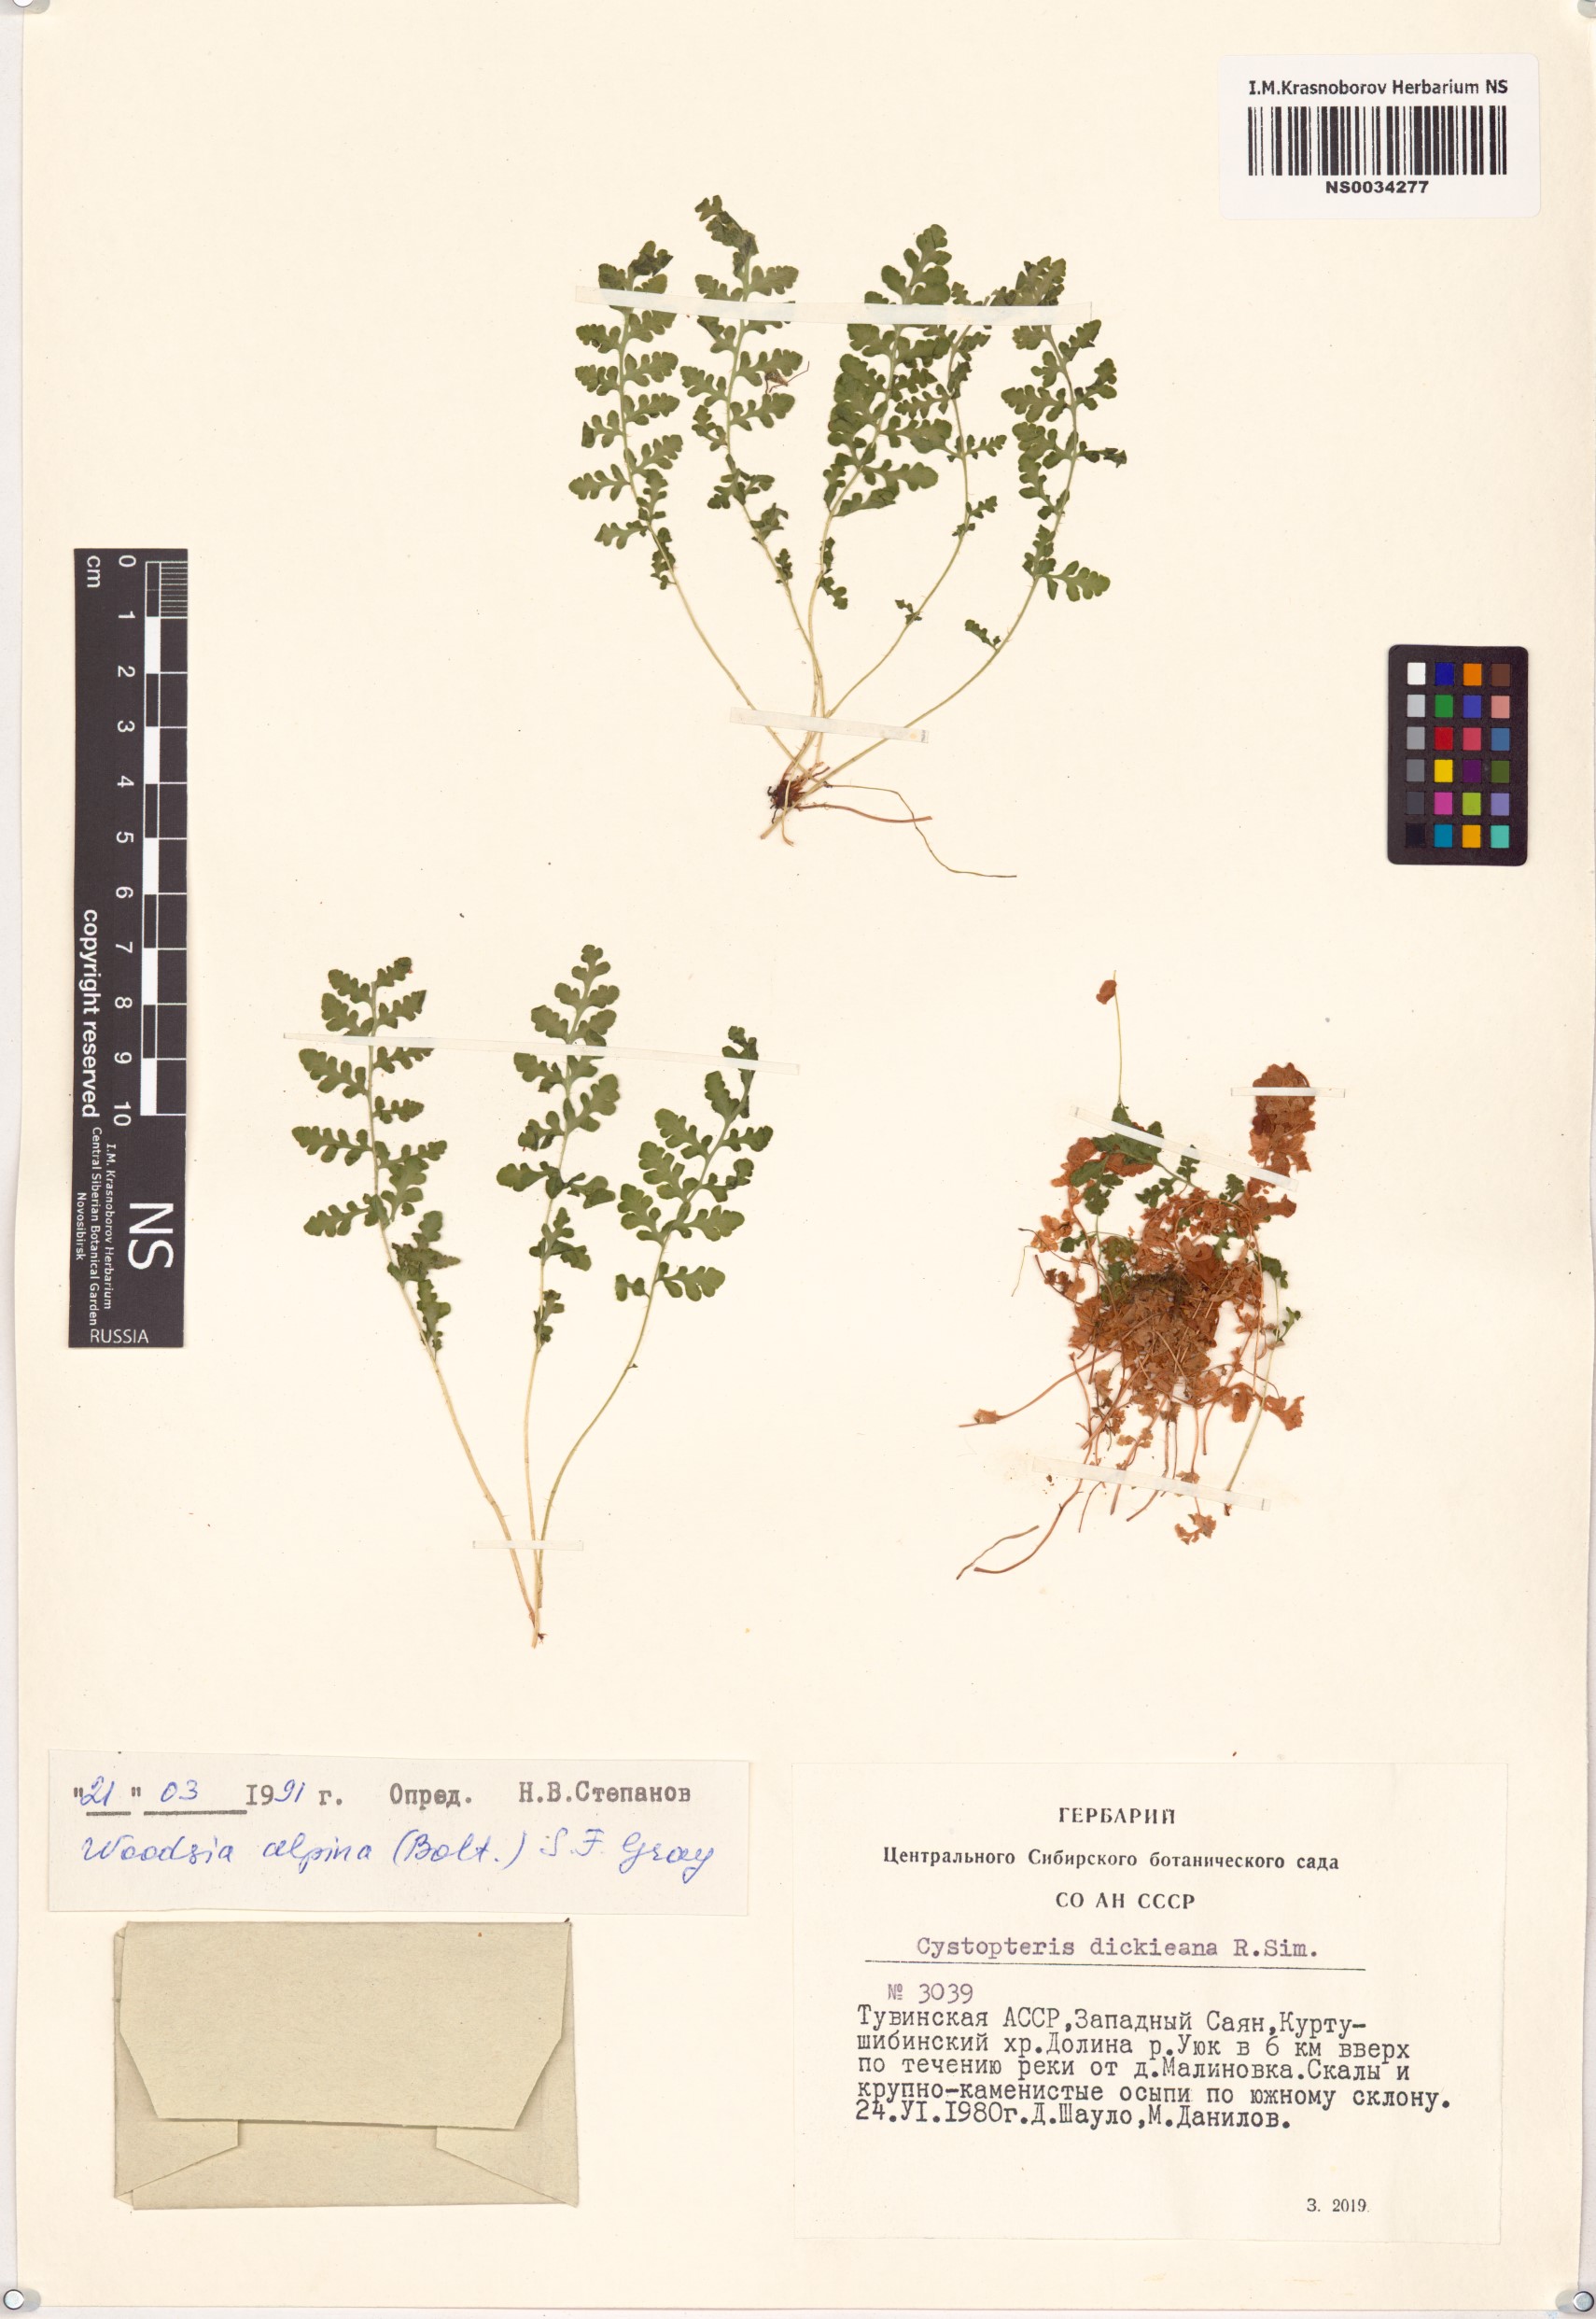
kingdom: Plantae
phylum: Tracheophyta
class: Polypodiopsida
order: Polypodiales
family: Woodsiaceae
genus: Woodsia
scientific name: Woodsia alpina
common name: Alpine woodsia
